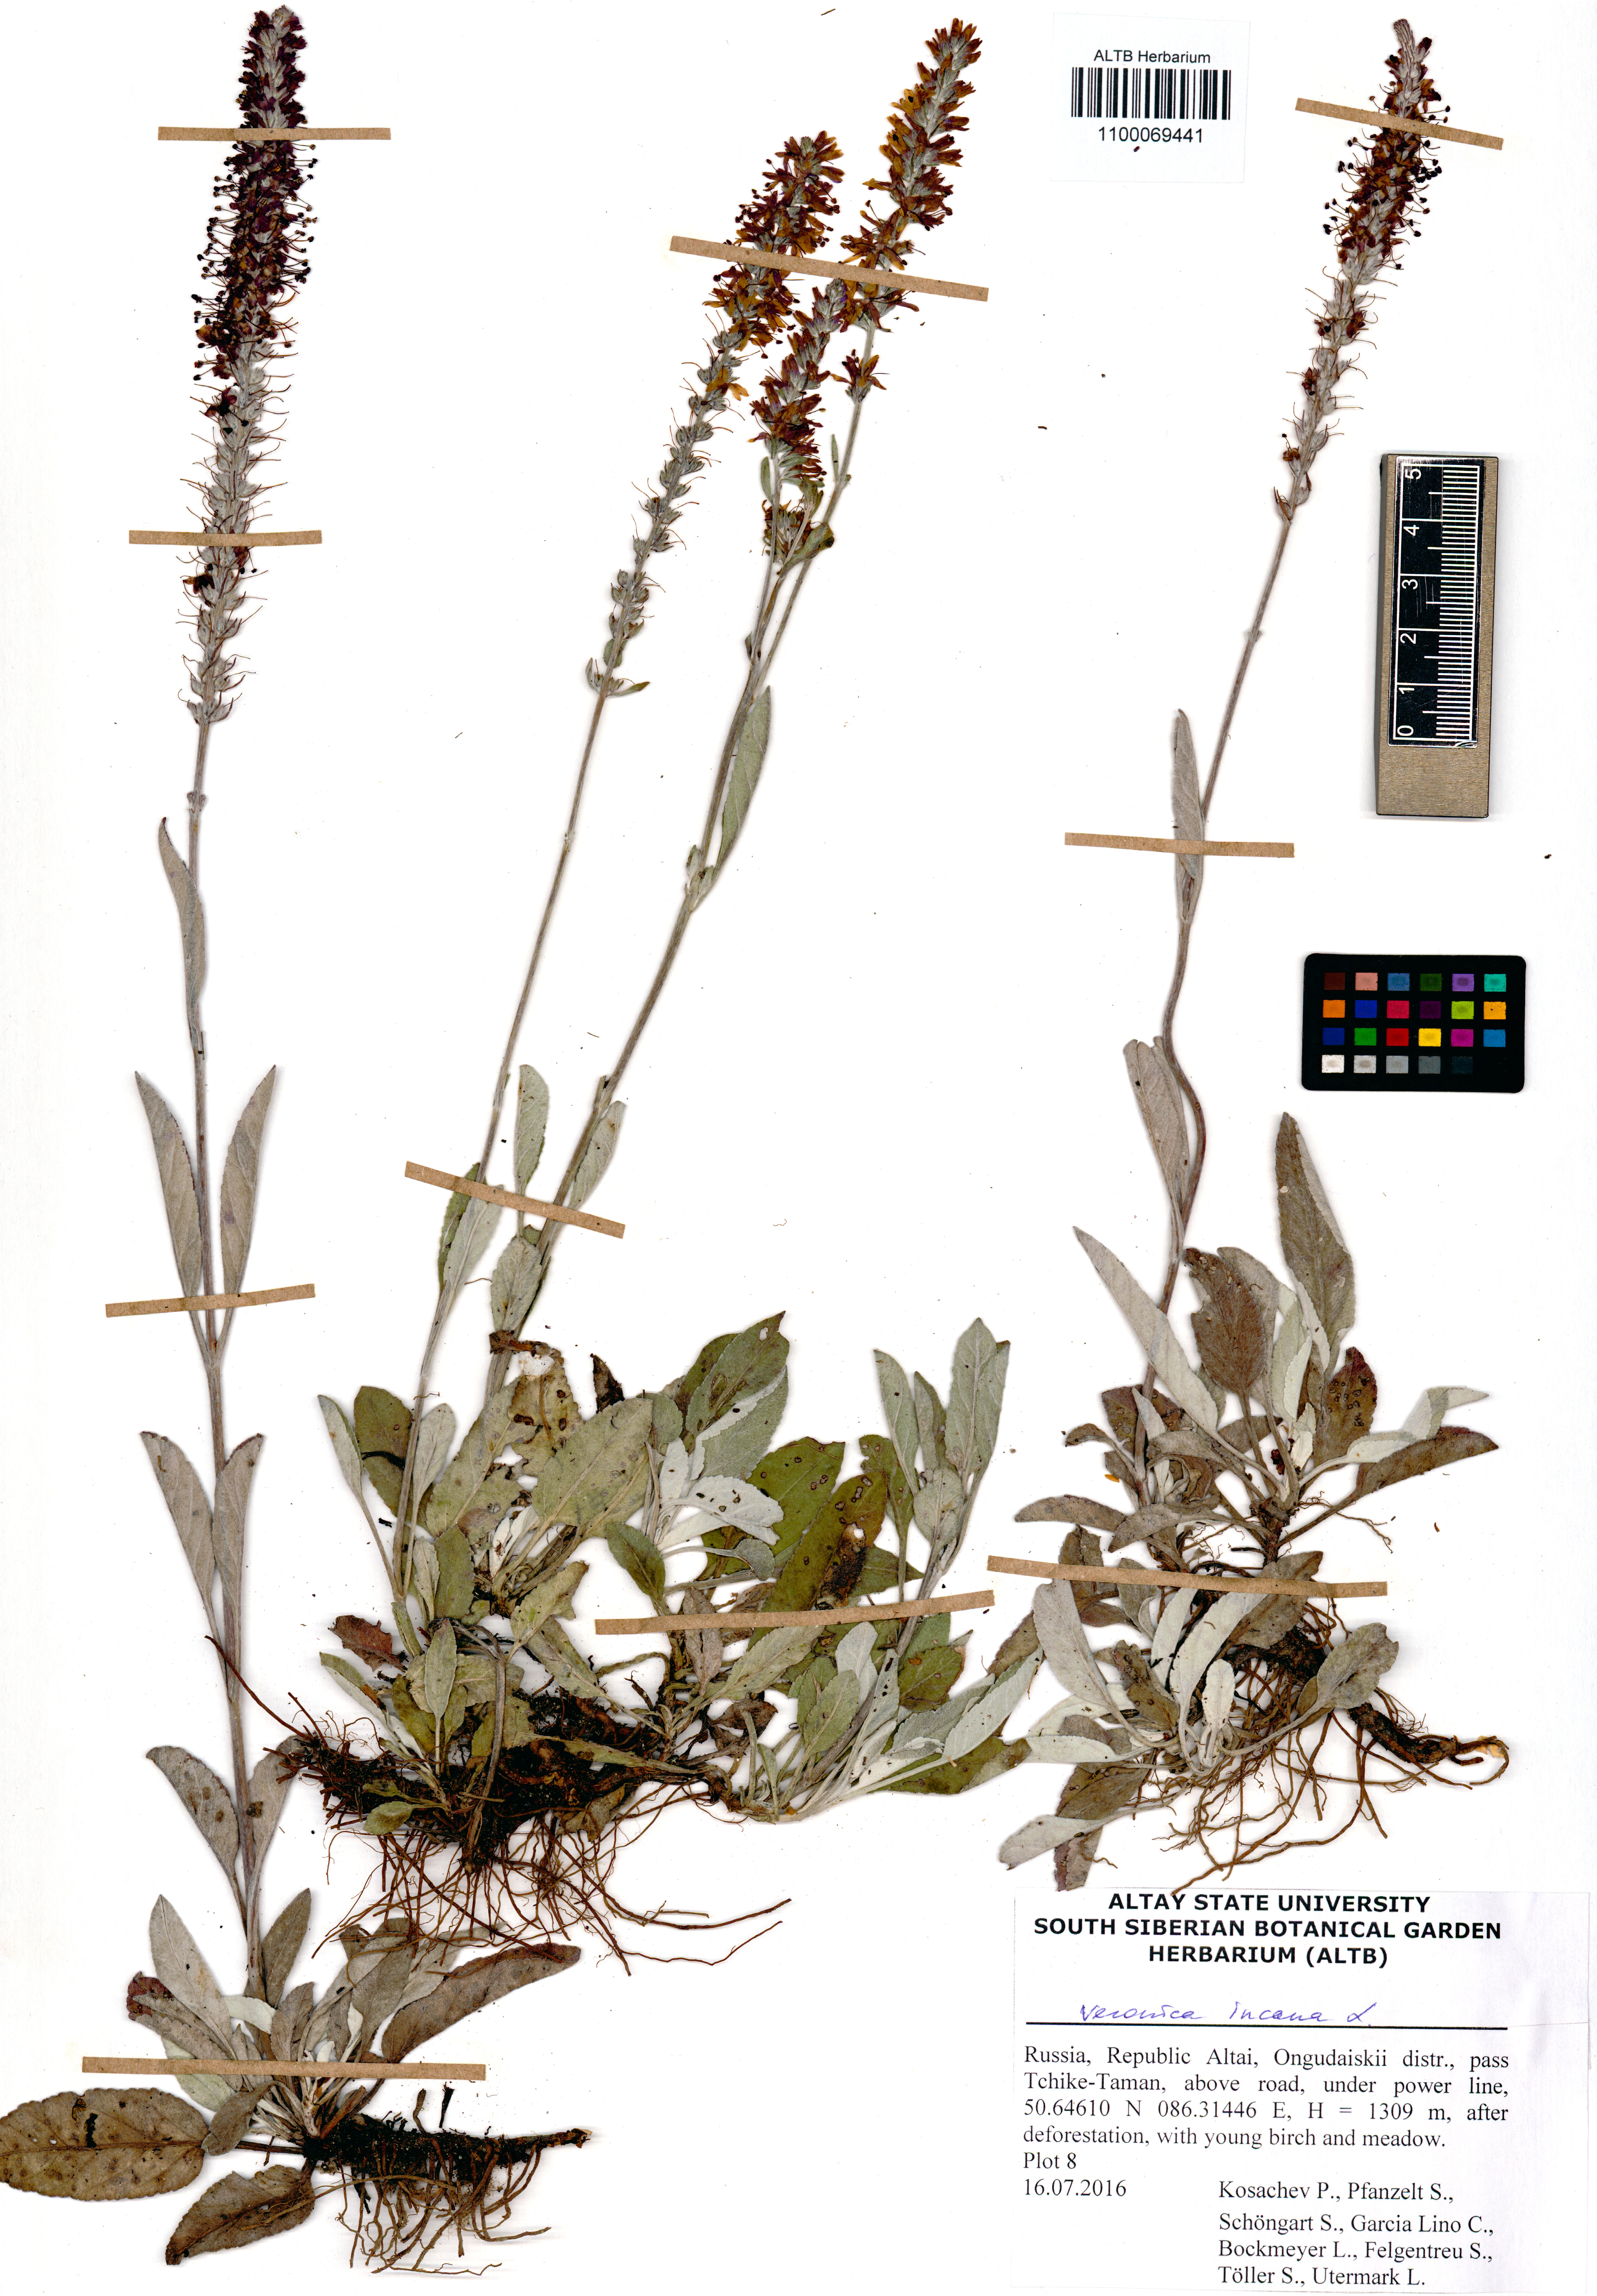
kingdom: Plantae
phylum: Tracheophyta
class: Magnoliopsida
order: Lamiales
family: Plantaginaceae
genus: Veronica
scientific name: Veronica incana
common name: Silver speedwell
